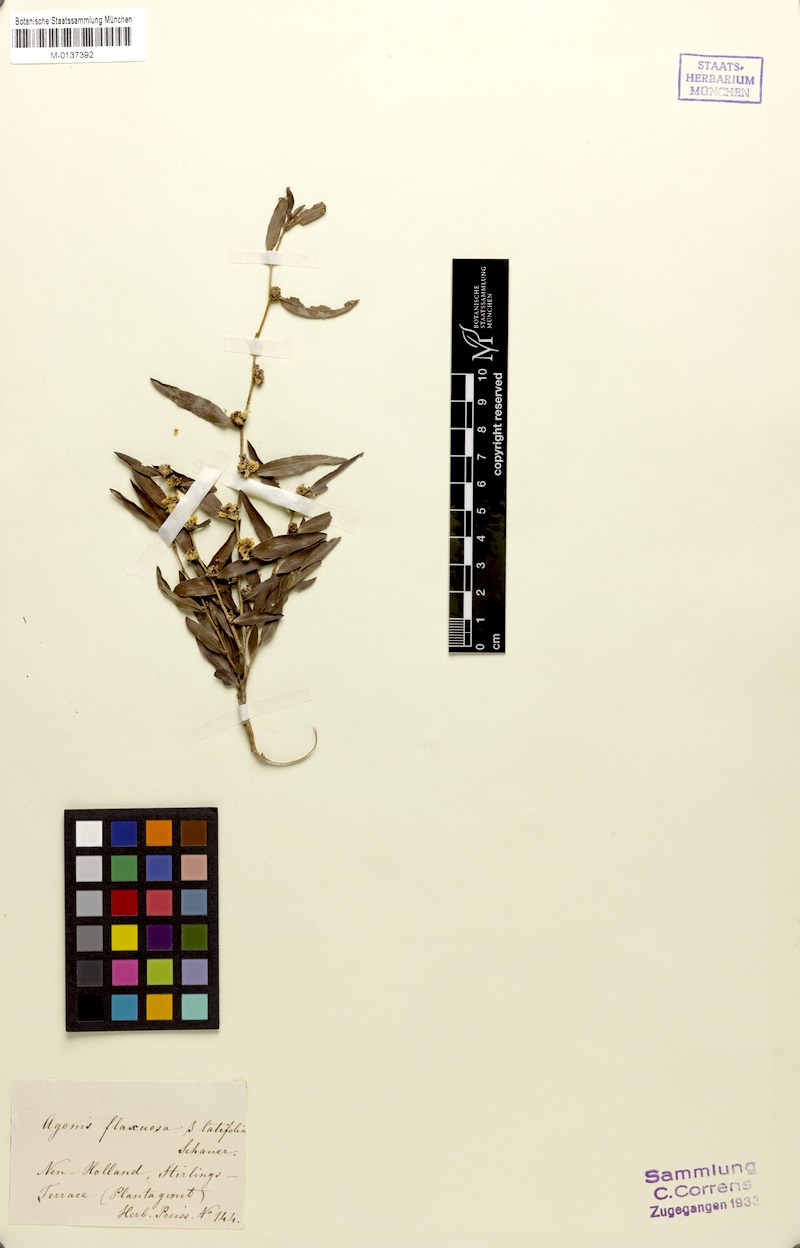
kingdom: Plantae
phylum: Tracheophyta
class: Magnoliopsida
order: Myrtales
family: Myrtaceae
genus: Agonis
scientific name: Agonis flexuosa
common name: Willow myrtle
